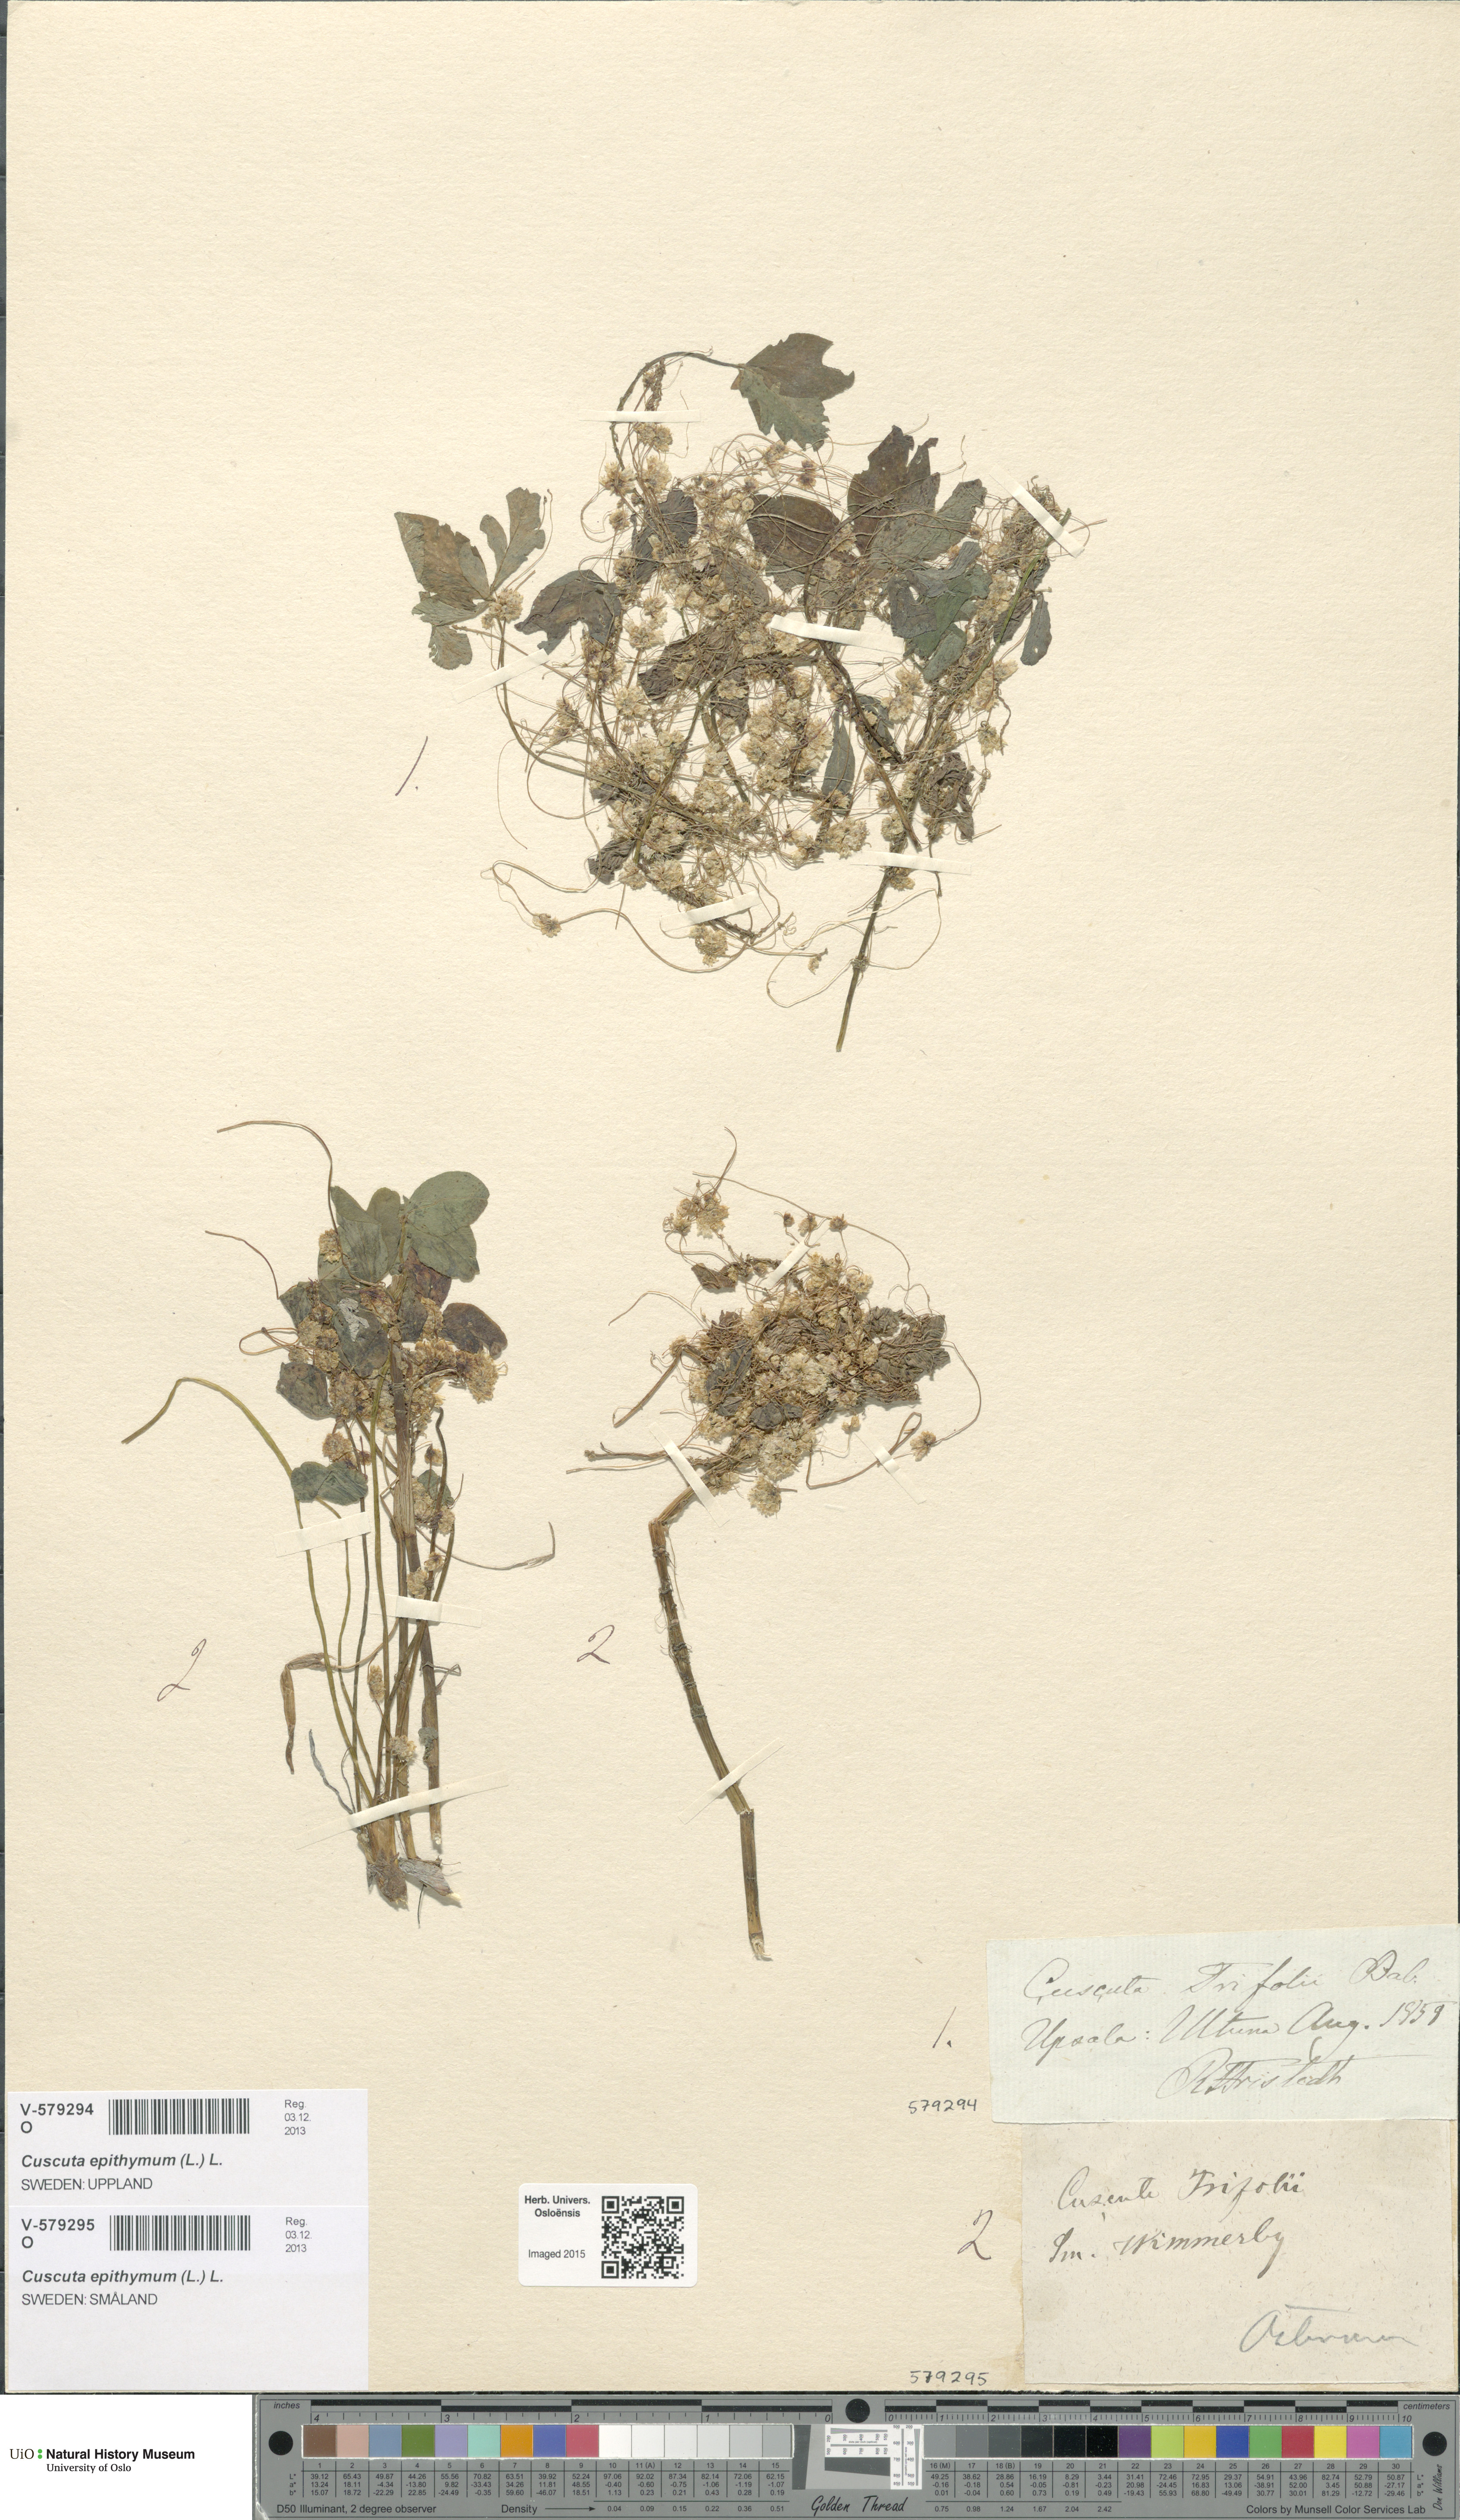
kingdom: Plantae
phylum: Tracheophyta
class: Magnoliopsida
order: Solanales
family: Convolvulaceae
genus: Cuscuta
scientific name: Cuscuta epithymum
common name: Clover dodder
